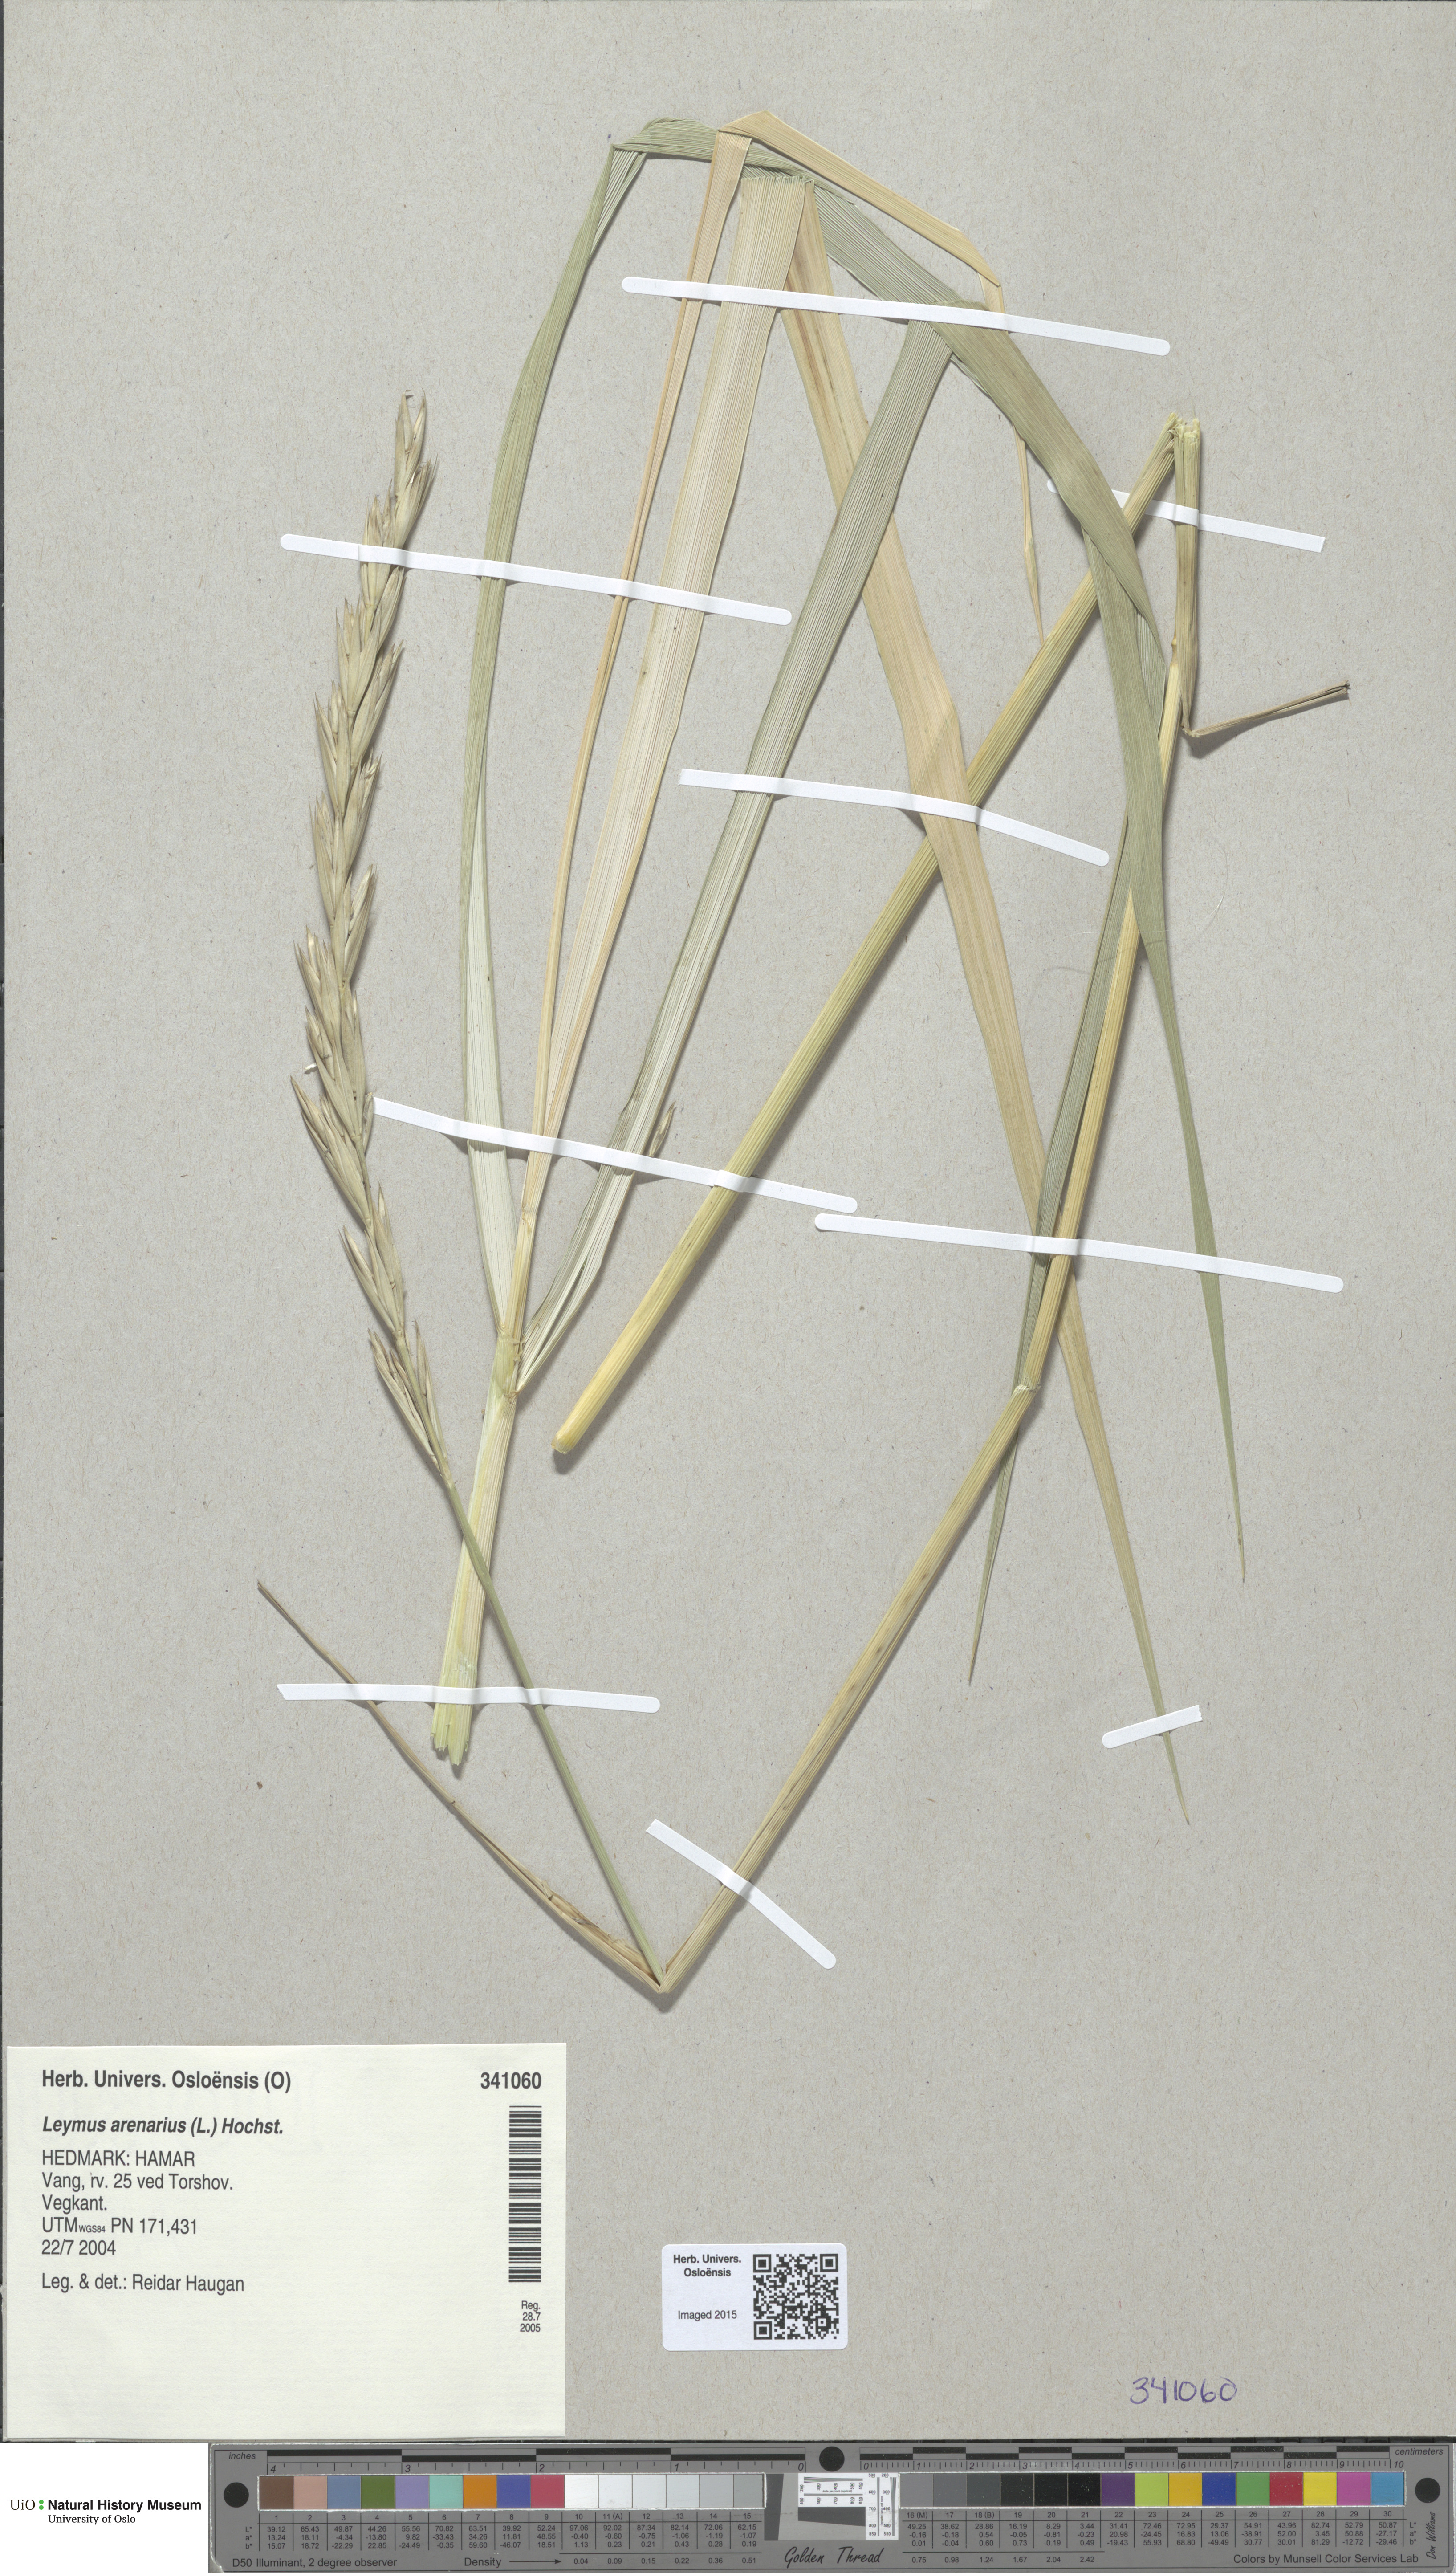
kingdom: Plantae
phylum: Tracheophyta
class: Liliopsida
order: Poales
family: Poaceae
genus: Leymus
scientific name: Leymus arenarius
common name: Lyme-grass
